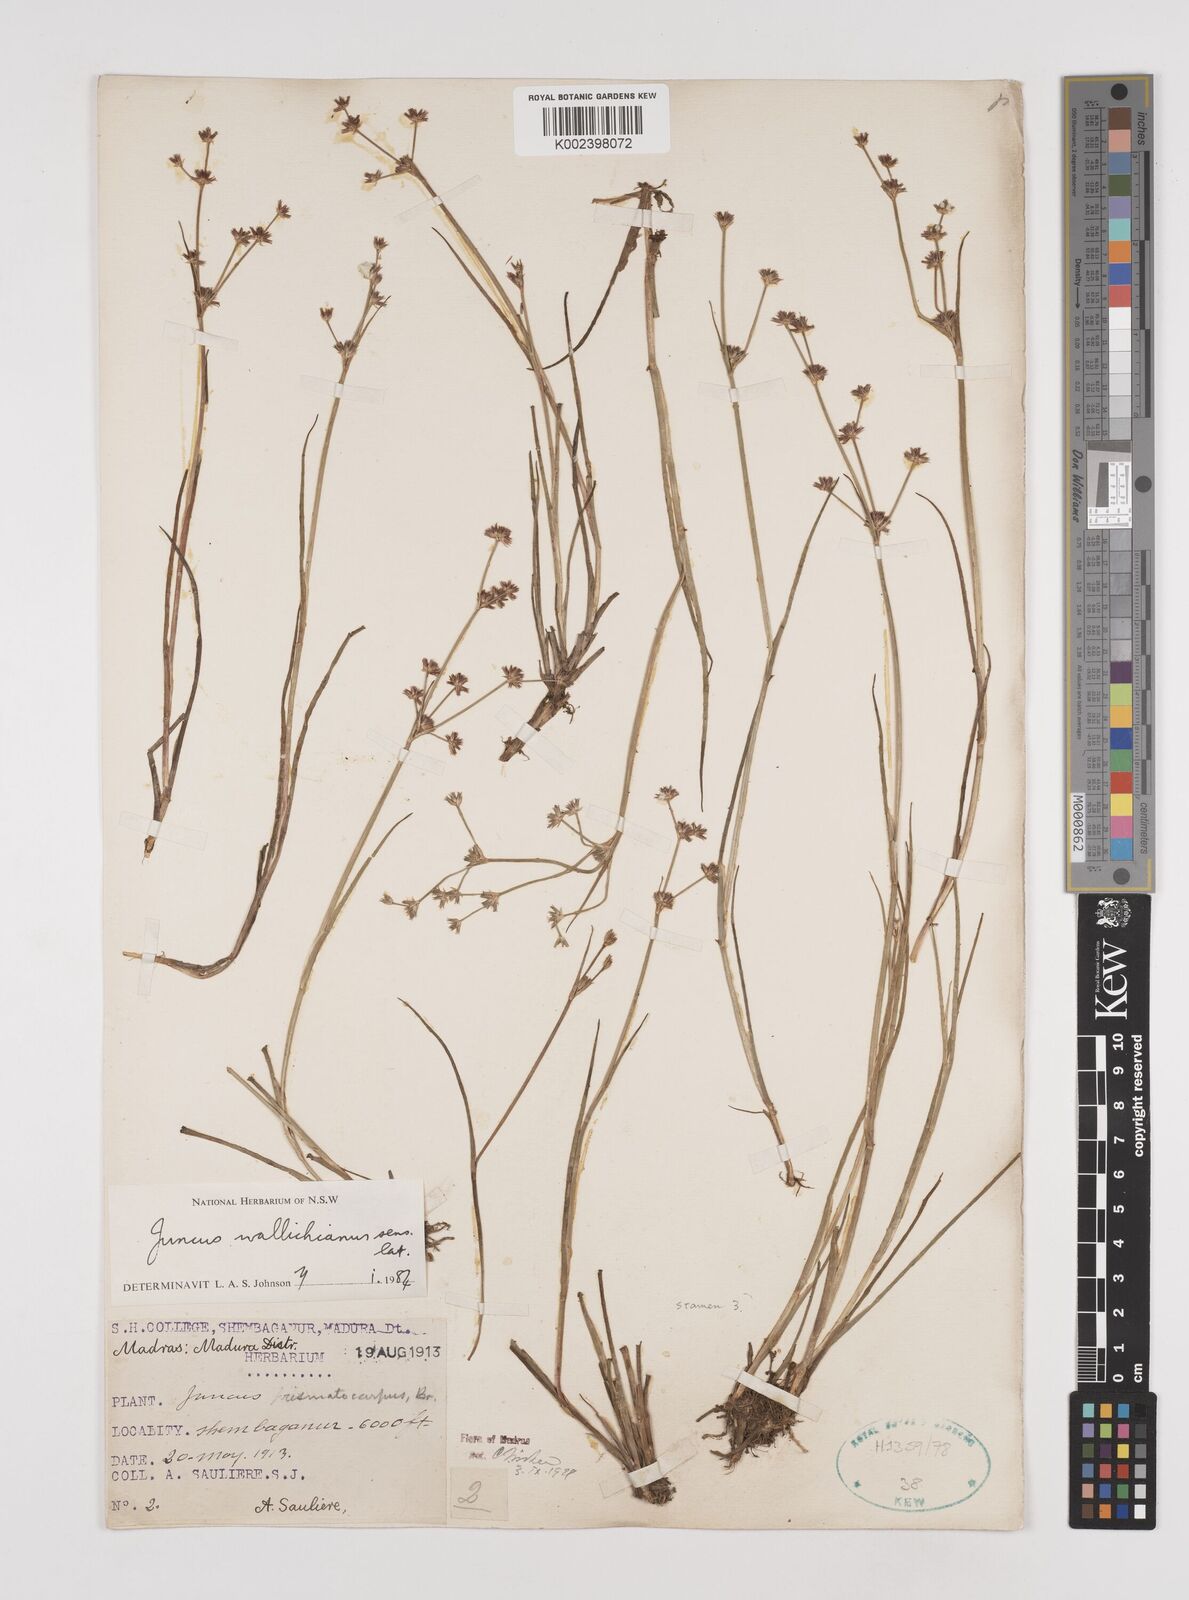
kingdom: Plantae
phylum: Tracheophyta
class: Liliopsida
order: Poales
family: Juncaceae
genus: Juncus
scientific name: Juncus wallichianus
